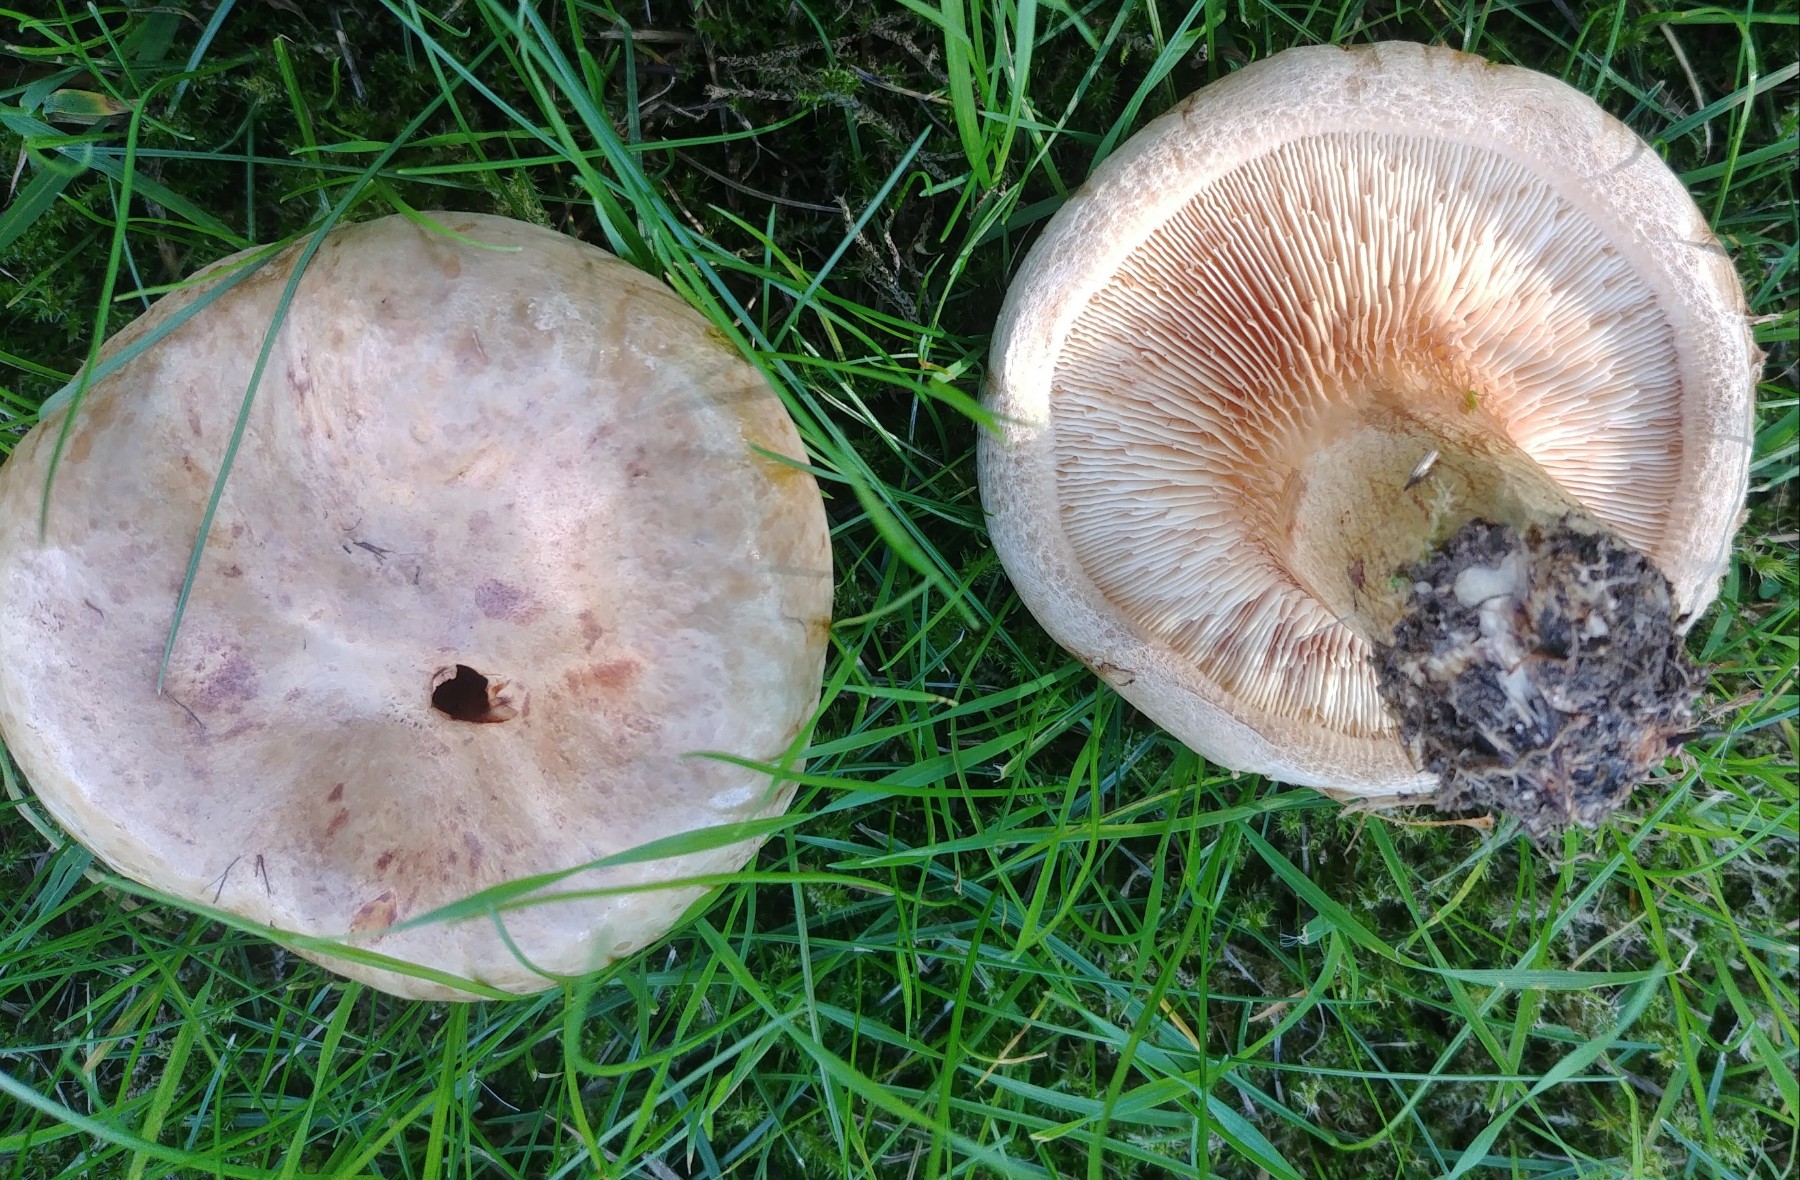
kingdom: Fungi
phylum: Basidiomycota
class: Agaricomycetes
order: Boletales
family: Paxillaceae
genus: Paxillus
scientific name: Paxillus
